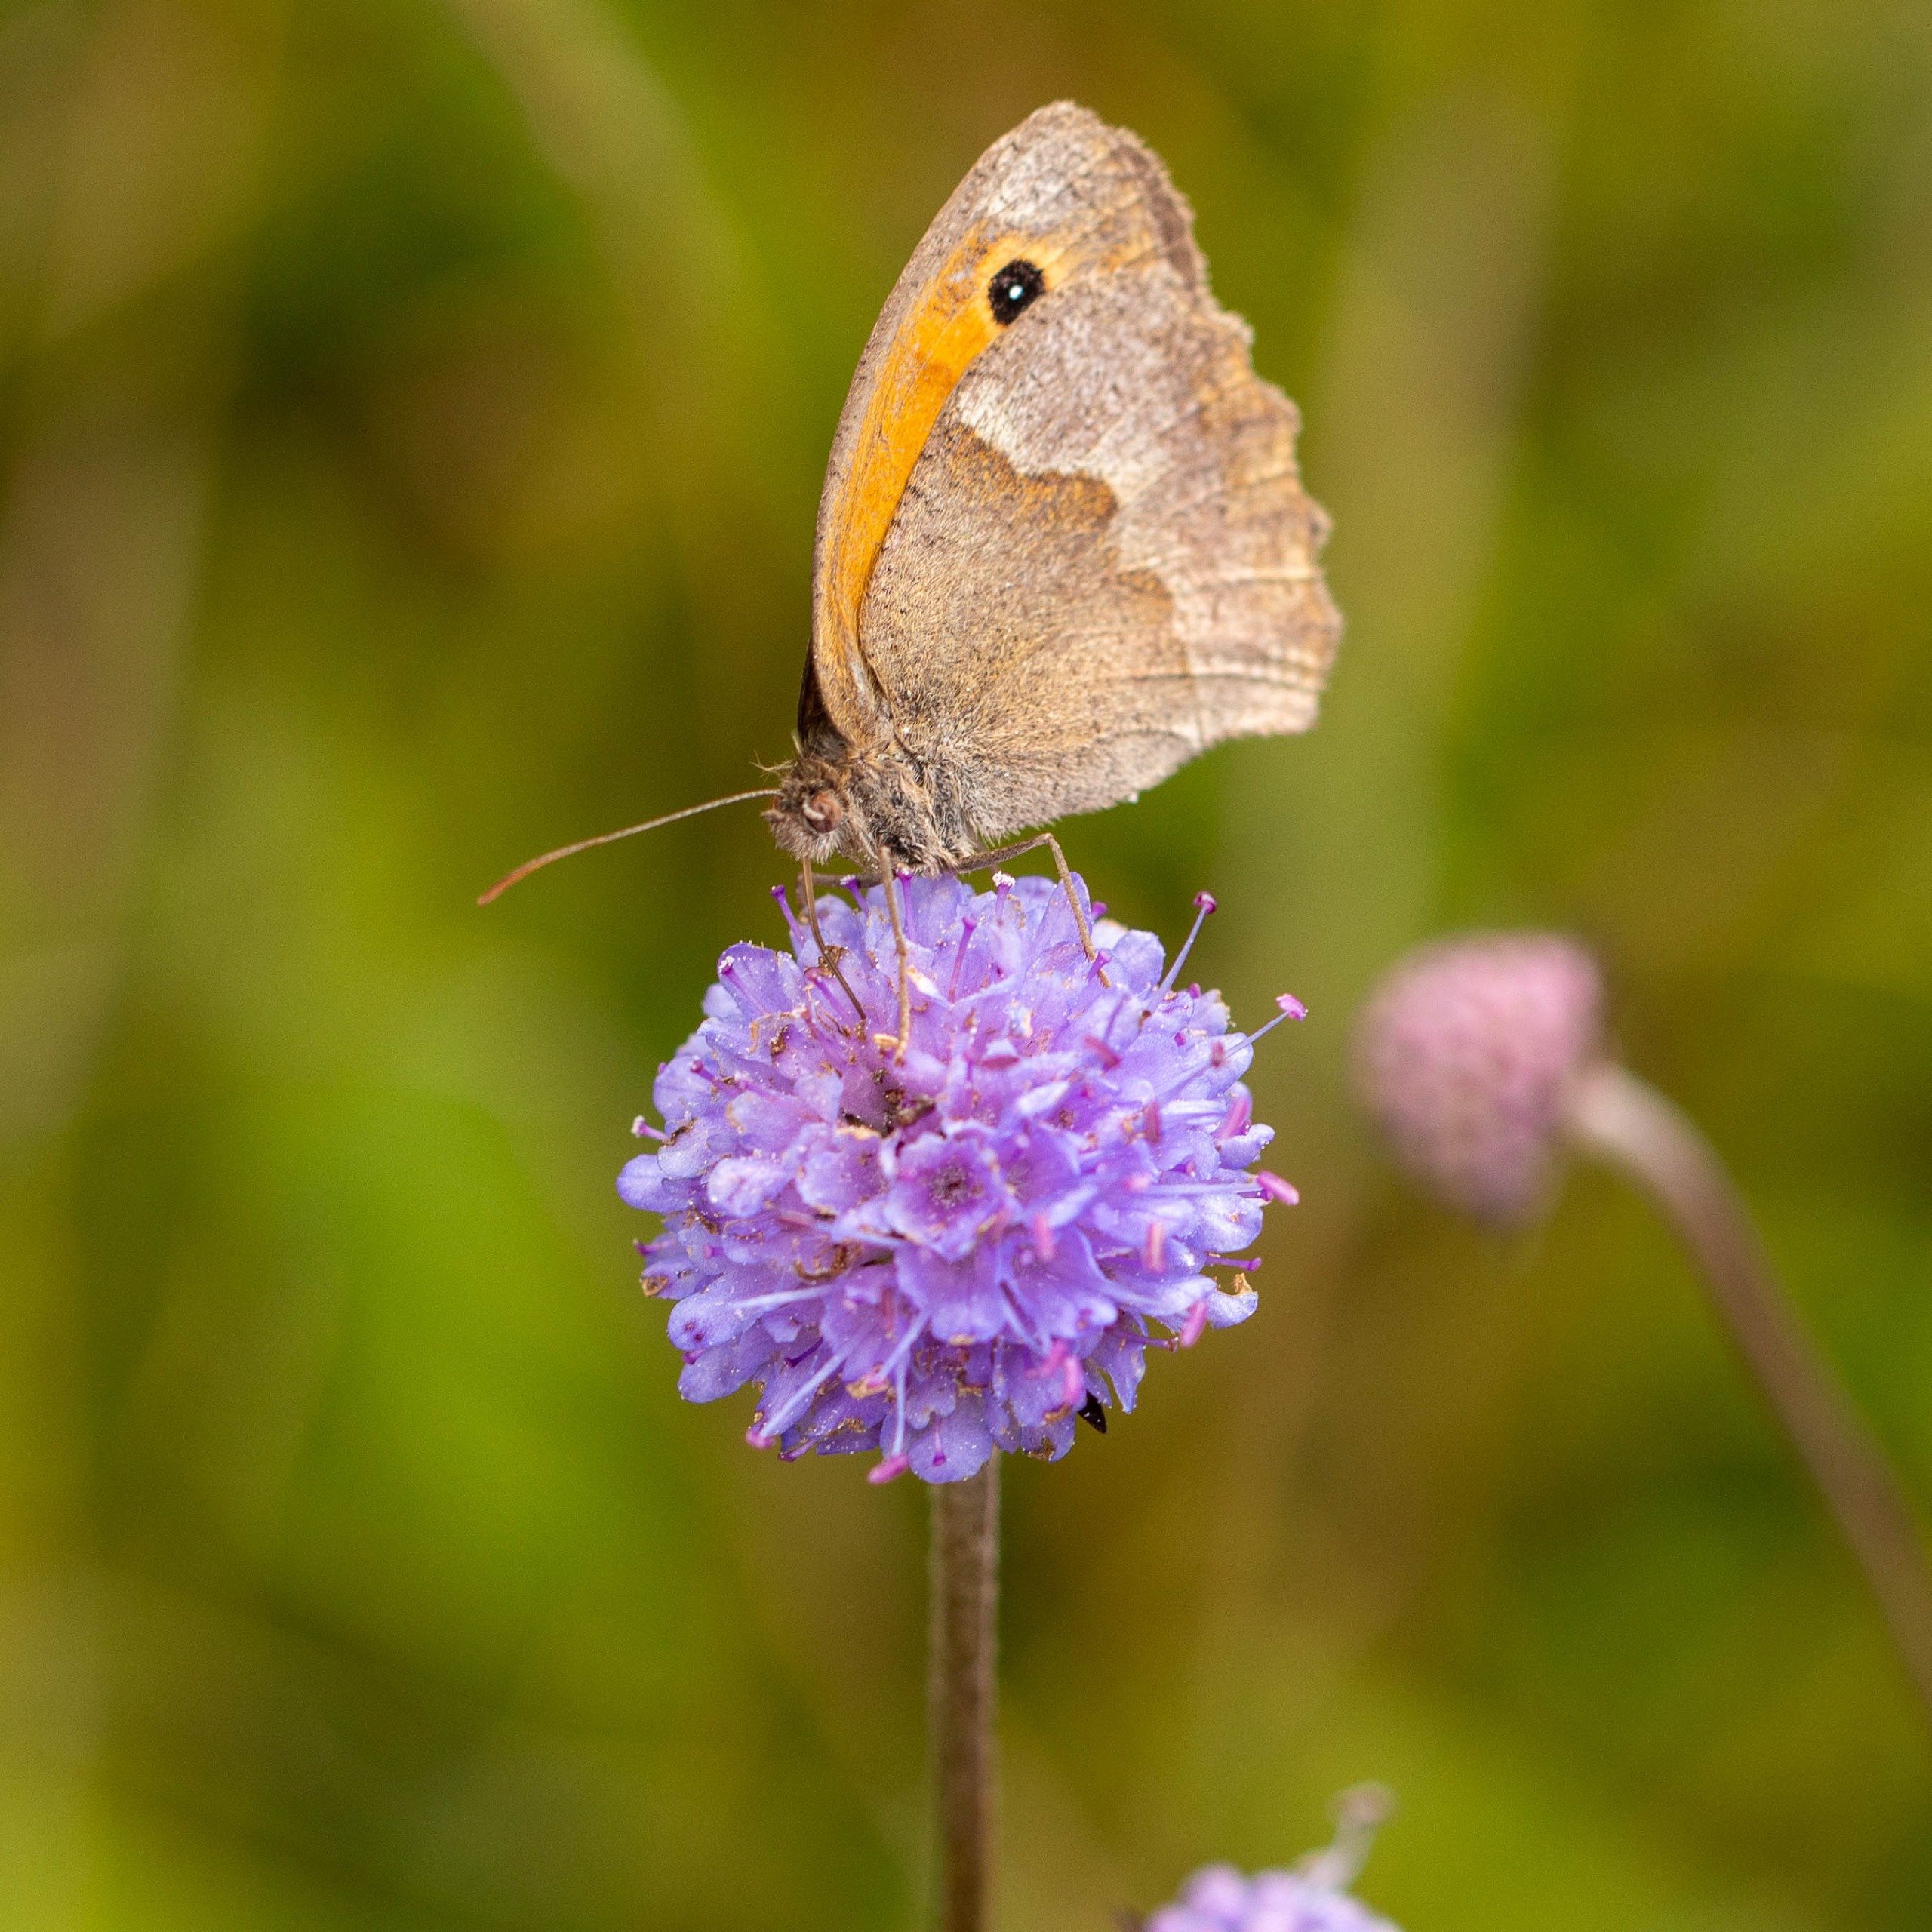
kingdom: Animalia
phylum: Arthropoda
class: Insecta
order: Lepidoptera
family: Nymphalidae
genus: Maniola
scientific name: Maniola jurtina
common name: Græsrandøje
